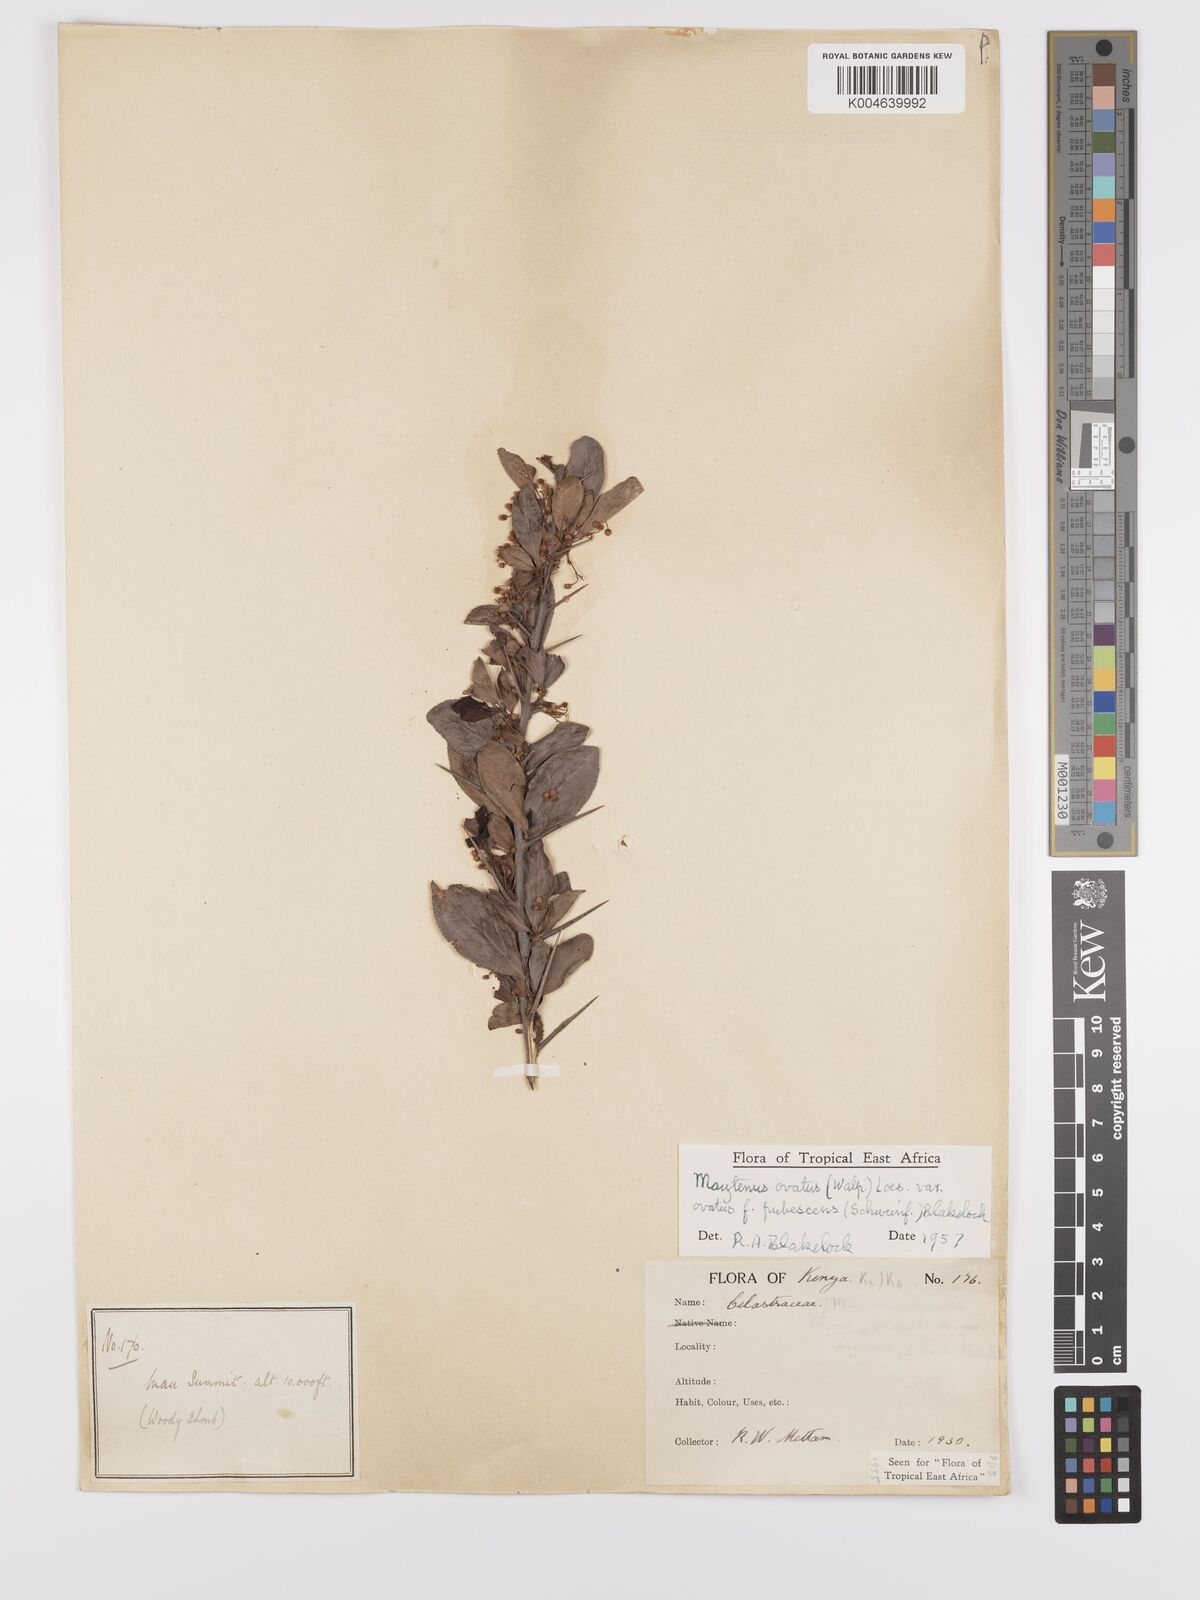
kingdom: Plantae
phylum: Tracheophyta
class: Magnoliopsida
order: Celastrales
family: Celastraceae
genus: Gymnosporia
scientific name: Gymnosporia arbutifolia
